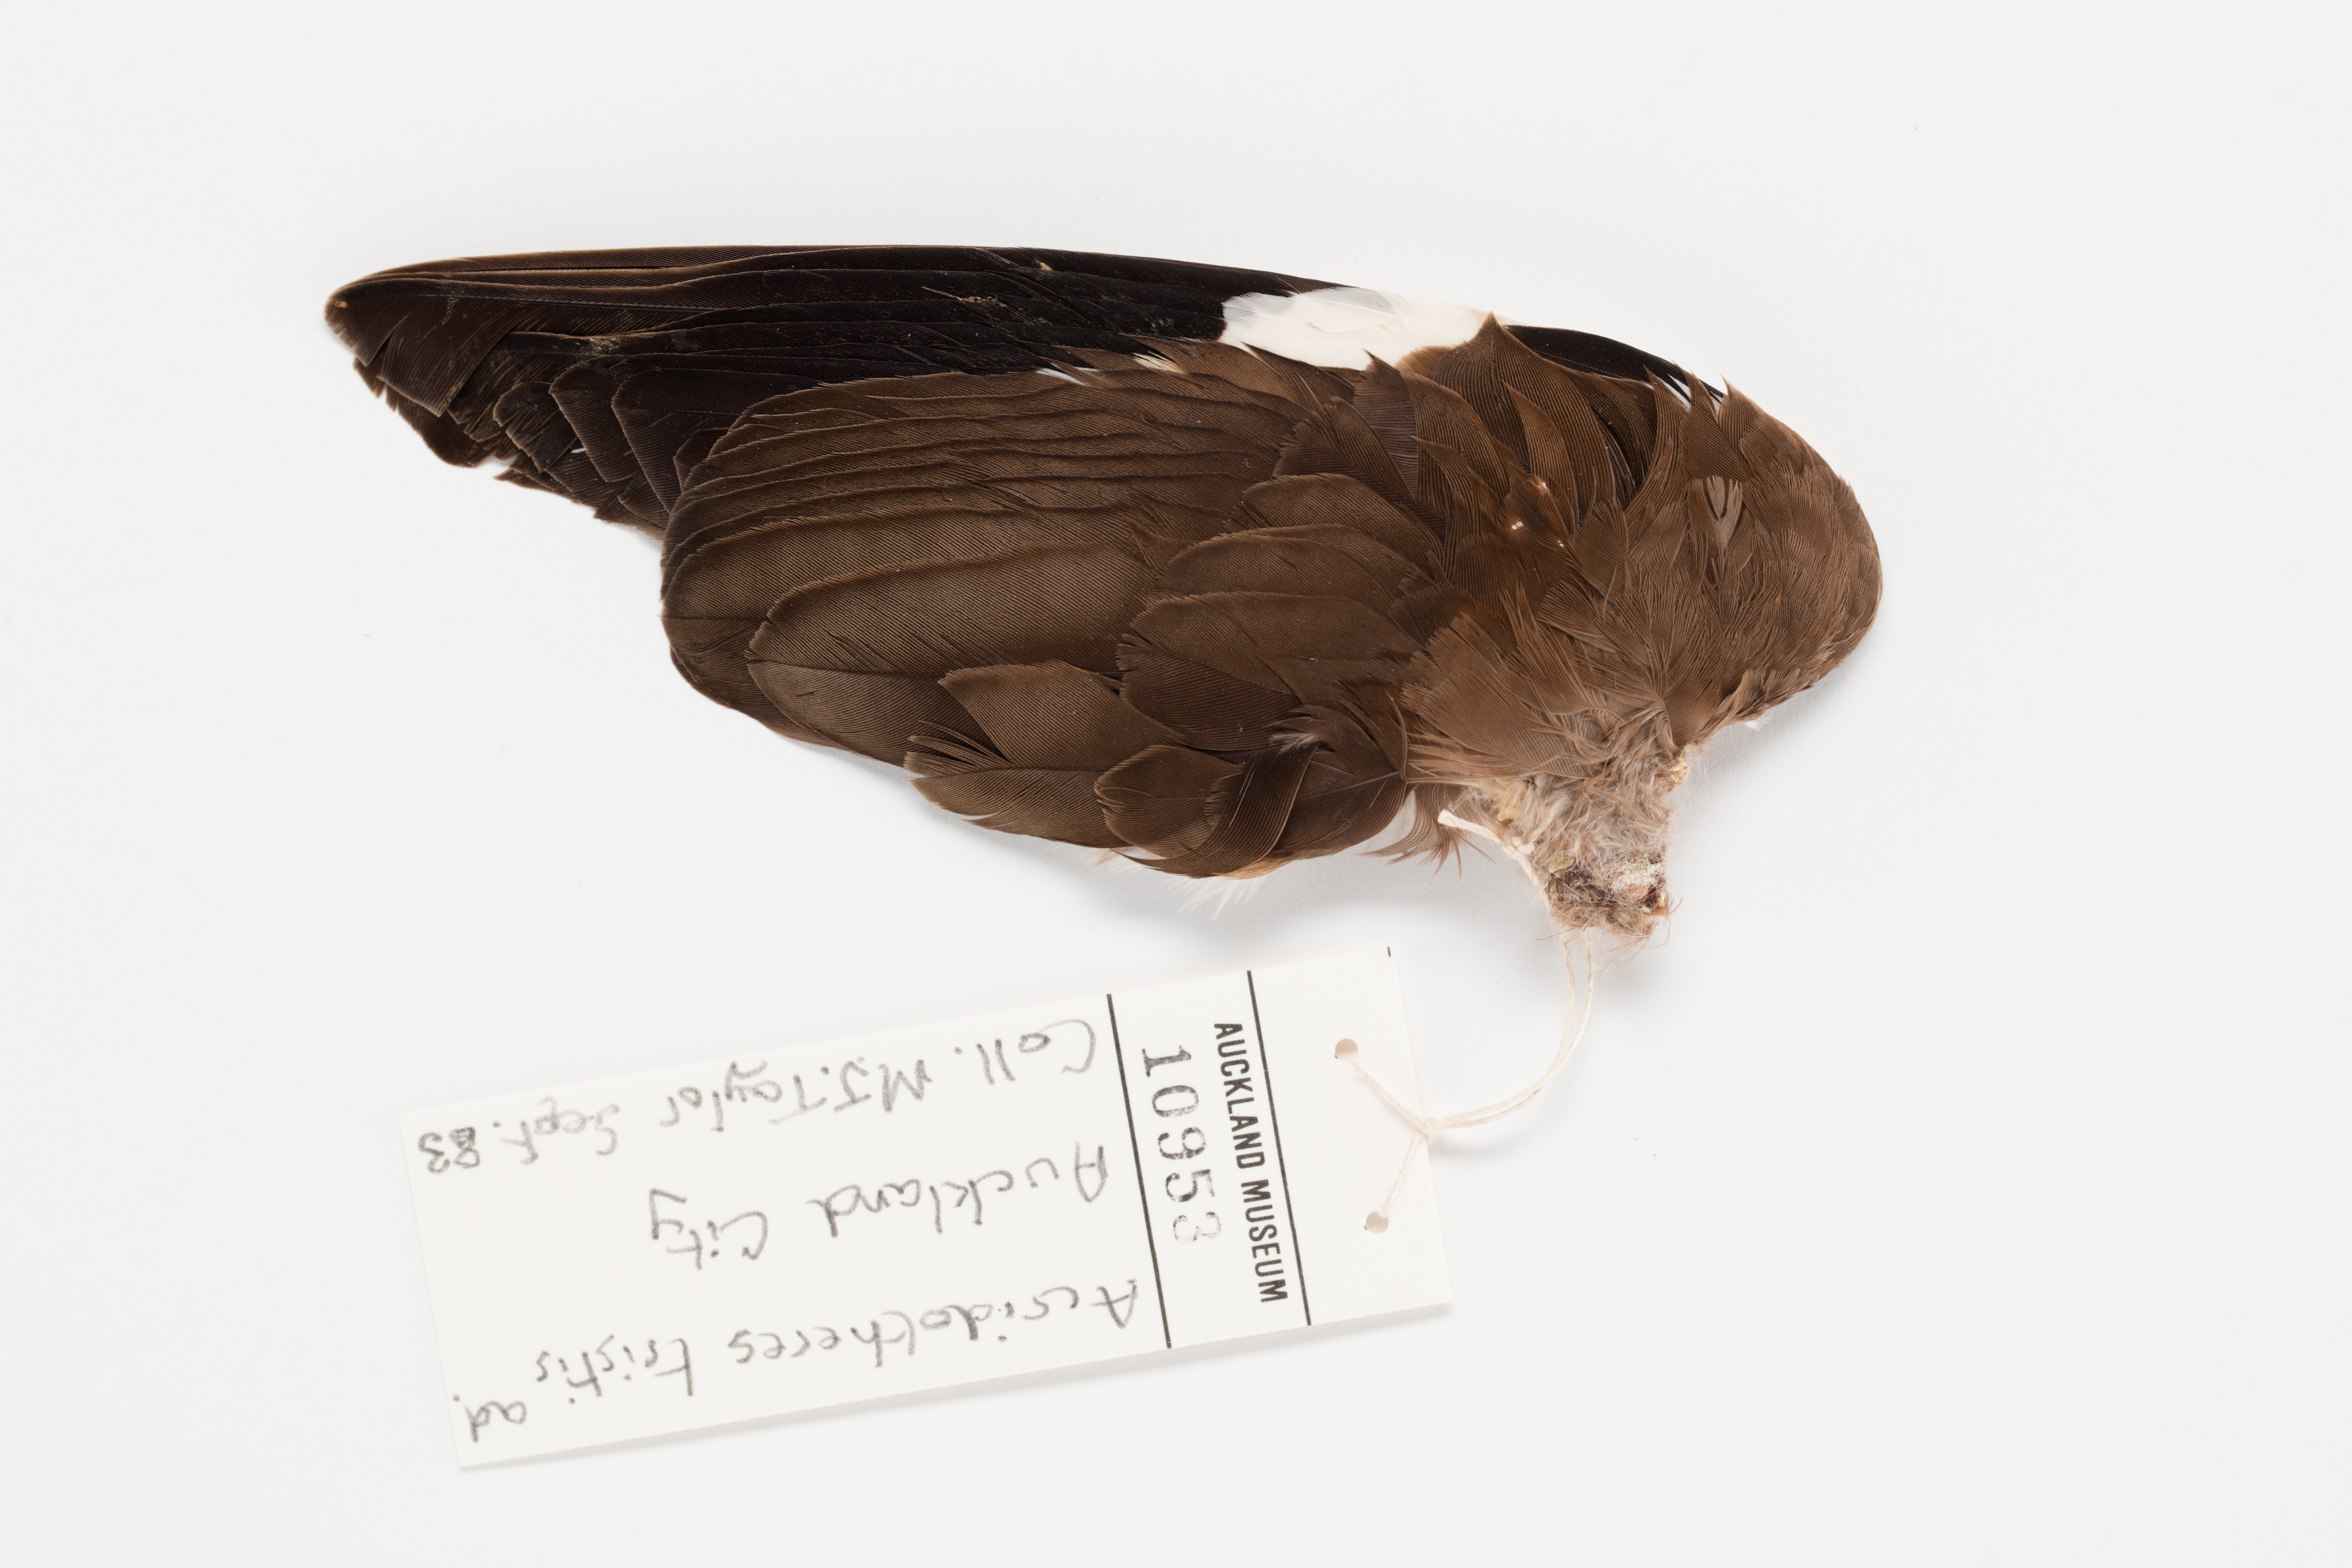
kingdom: Animalia
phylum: Chordata
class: Aves
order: Passeriformes
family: Sturnidae
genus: Acridotheres
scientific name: Acridotheres tristis
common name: Common myna
